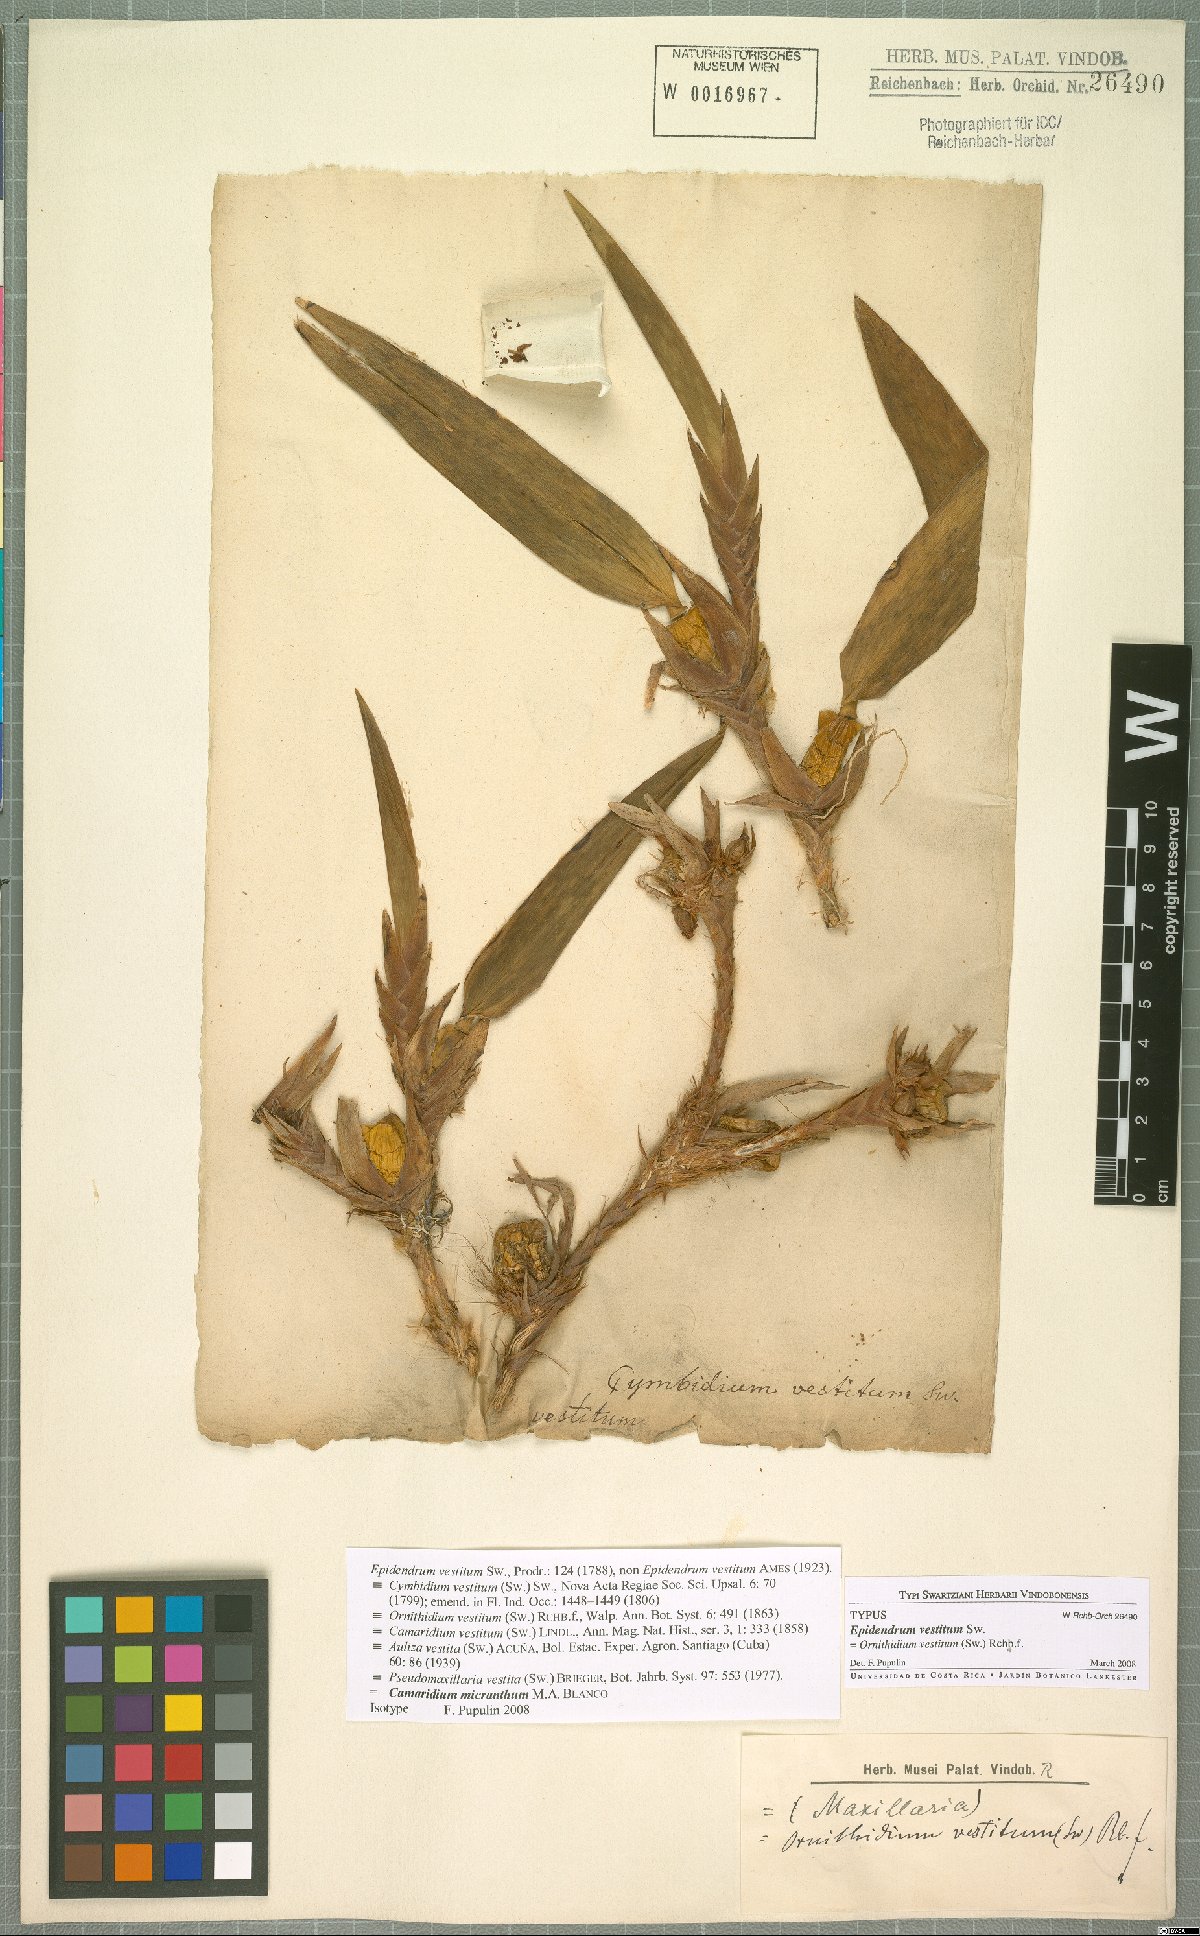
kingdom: Plantae
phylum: Tracheophyta
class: Liliopsida
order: Asparagales
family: Orchidaceae
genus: Maxillaria
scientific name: Maxillaria parviflora
